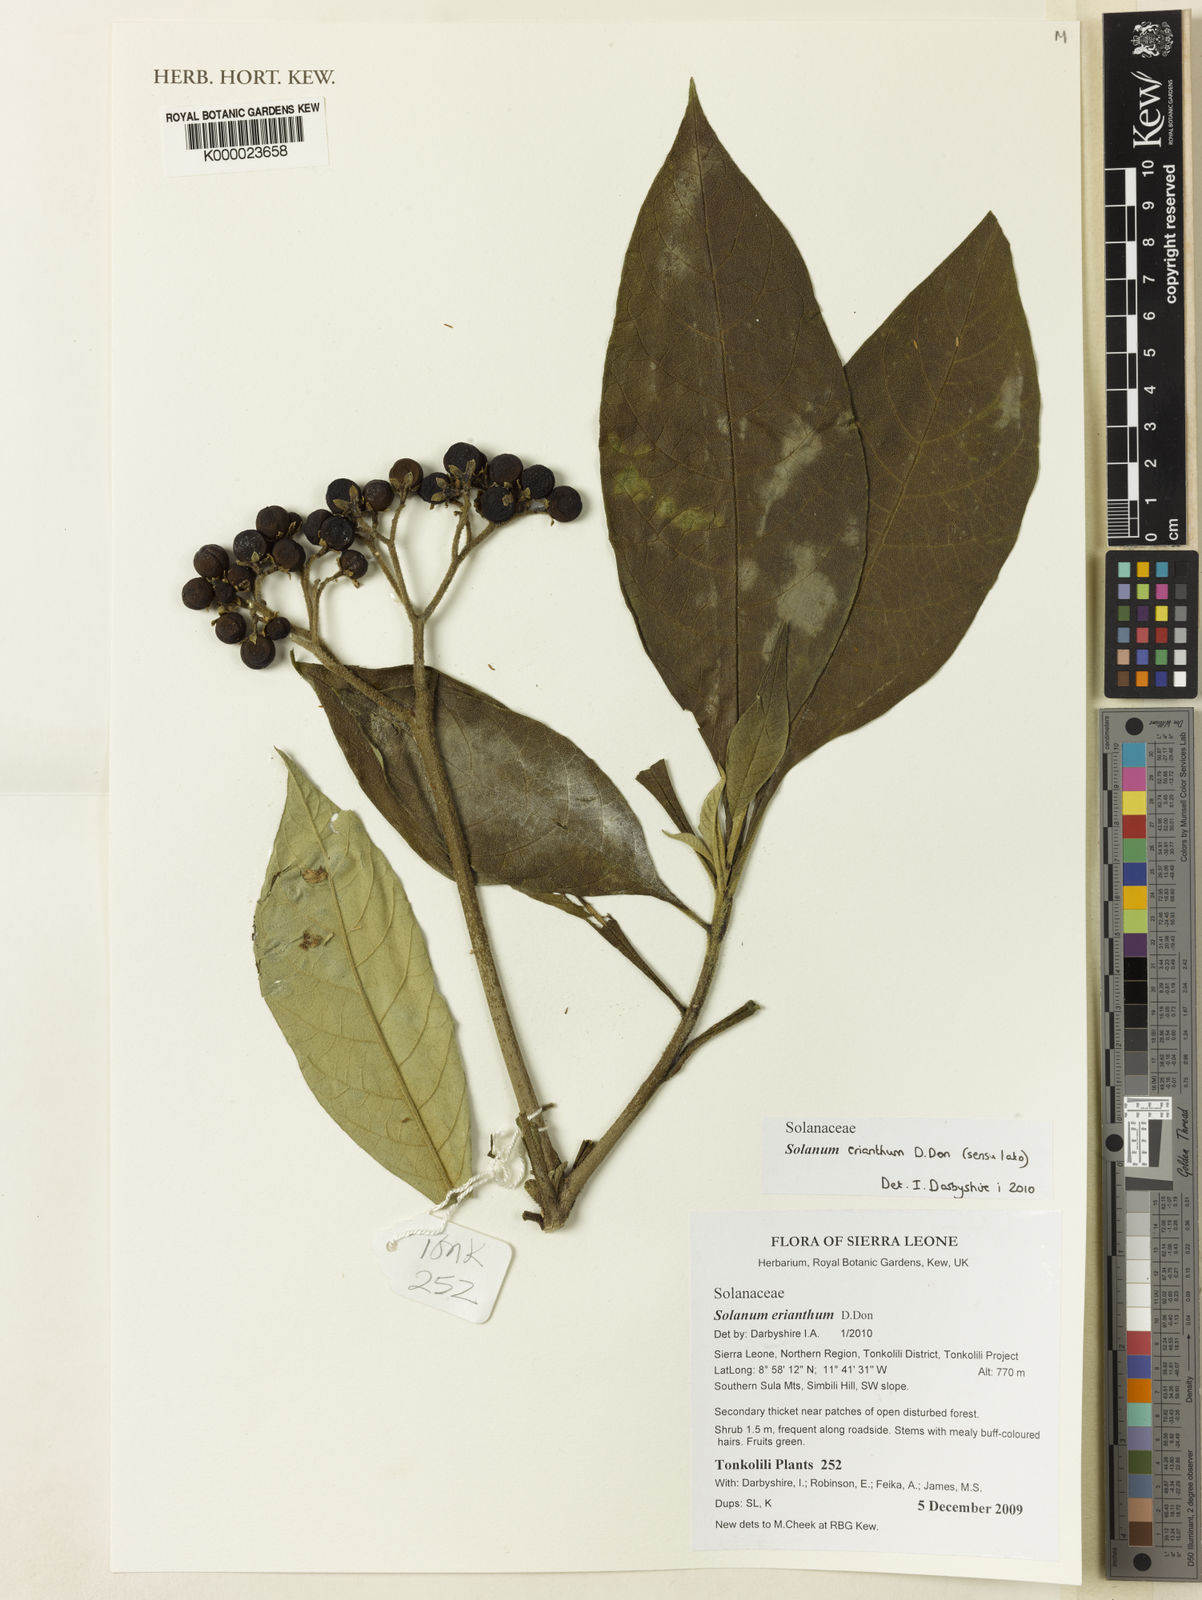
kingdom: Plantae
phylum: Tracheophyta
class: Magnoliopsida
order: Solanales
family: Solanaceae
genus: Solanum
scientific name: Solanum erianthum
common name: Tobacco-tree
